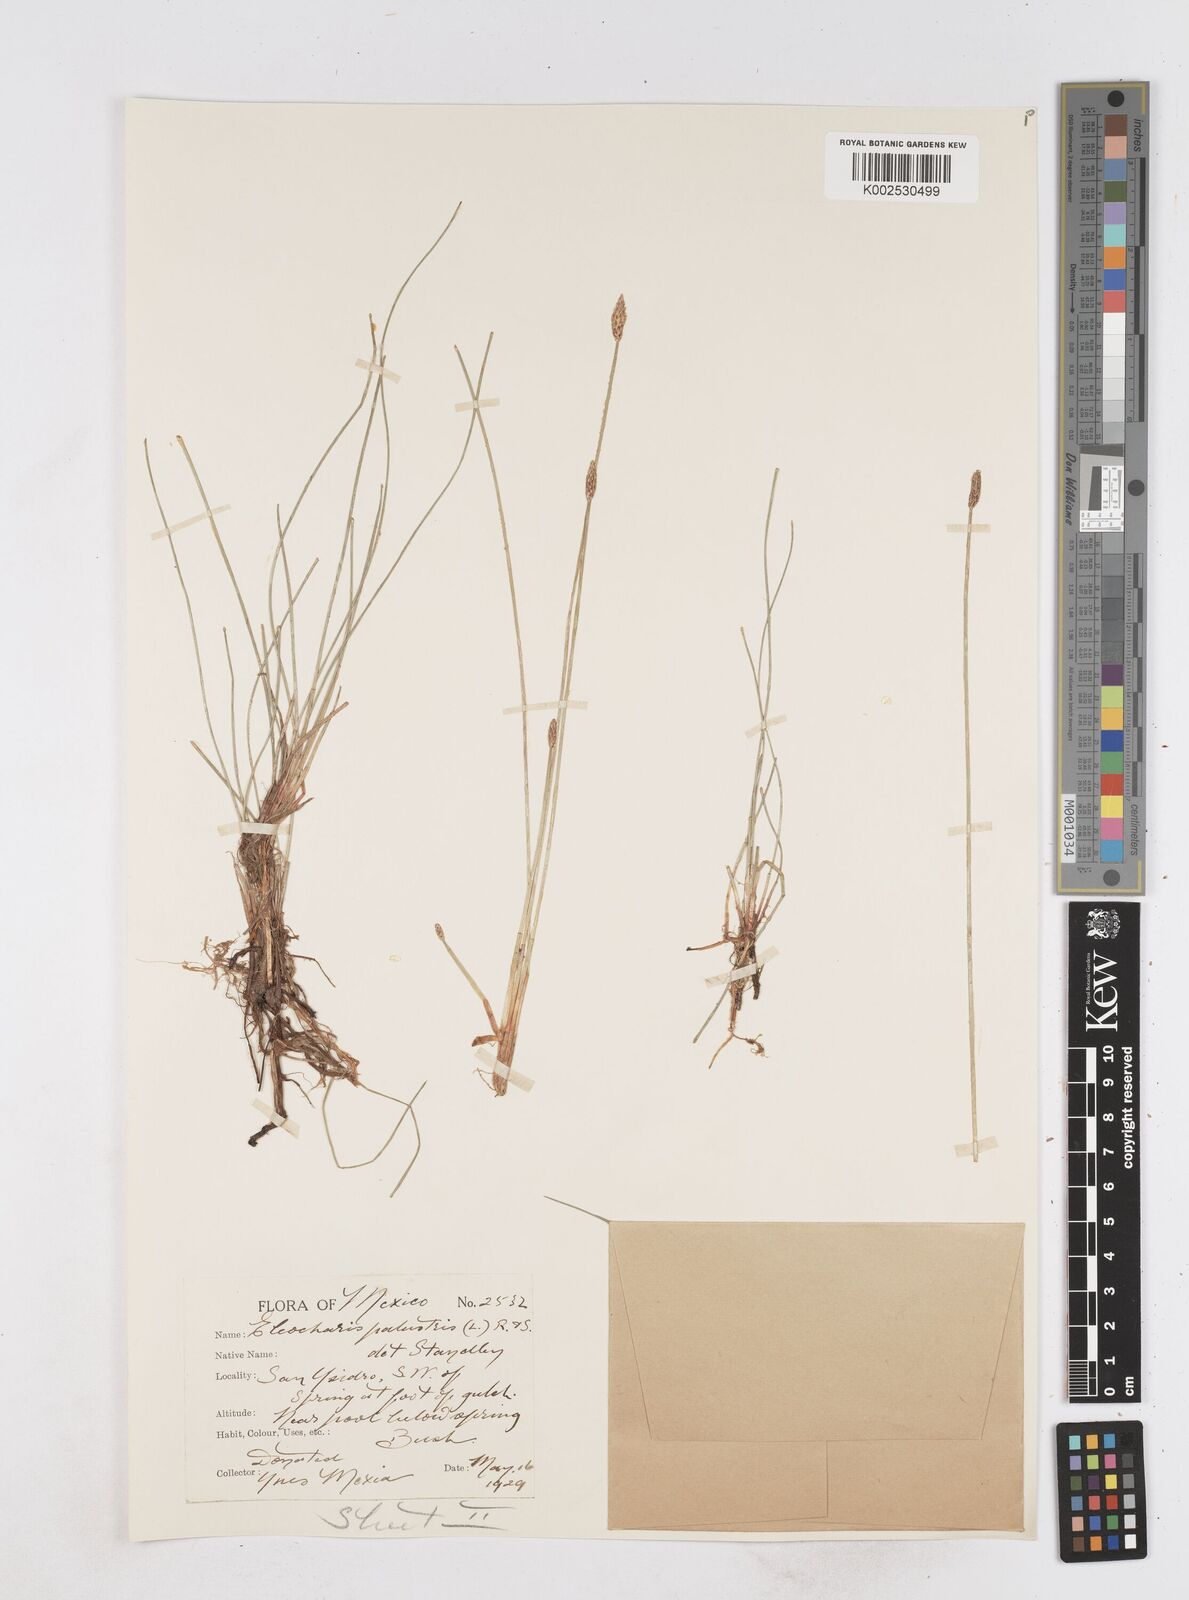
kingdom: Plantae
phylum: Tracheophyta
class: Liliopsida
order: Poales
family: Cyperaceae
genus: Eleocharis
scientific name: Eleocharis palustris
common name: Common spike-rush
